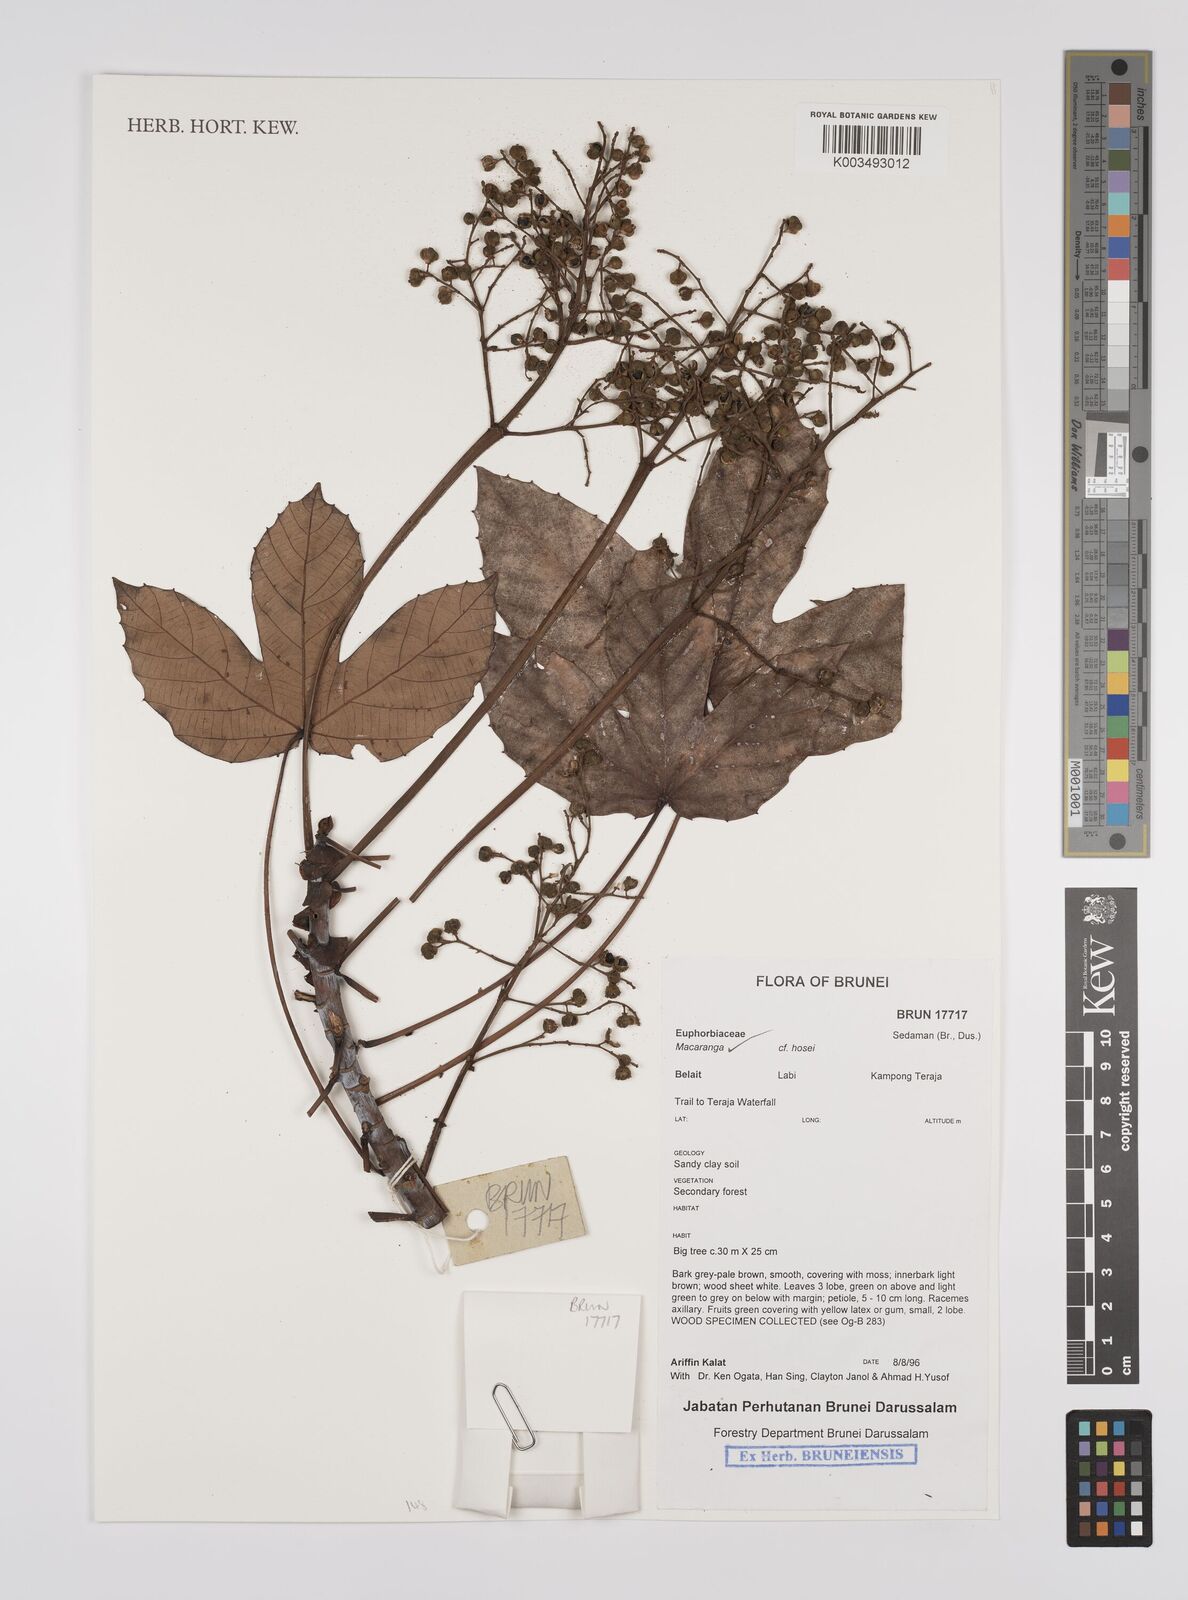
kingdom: Plantae
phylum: Tracheophyta
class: Magnoliopsida
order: Malpighiales
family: Euphorbiaceae
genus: Macaranga
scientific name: Macaranga hosei
